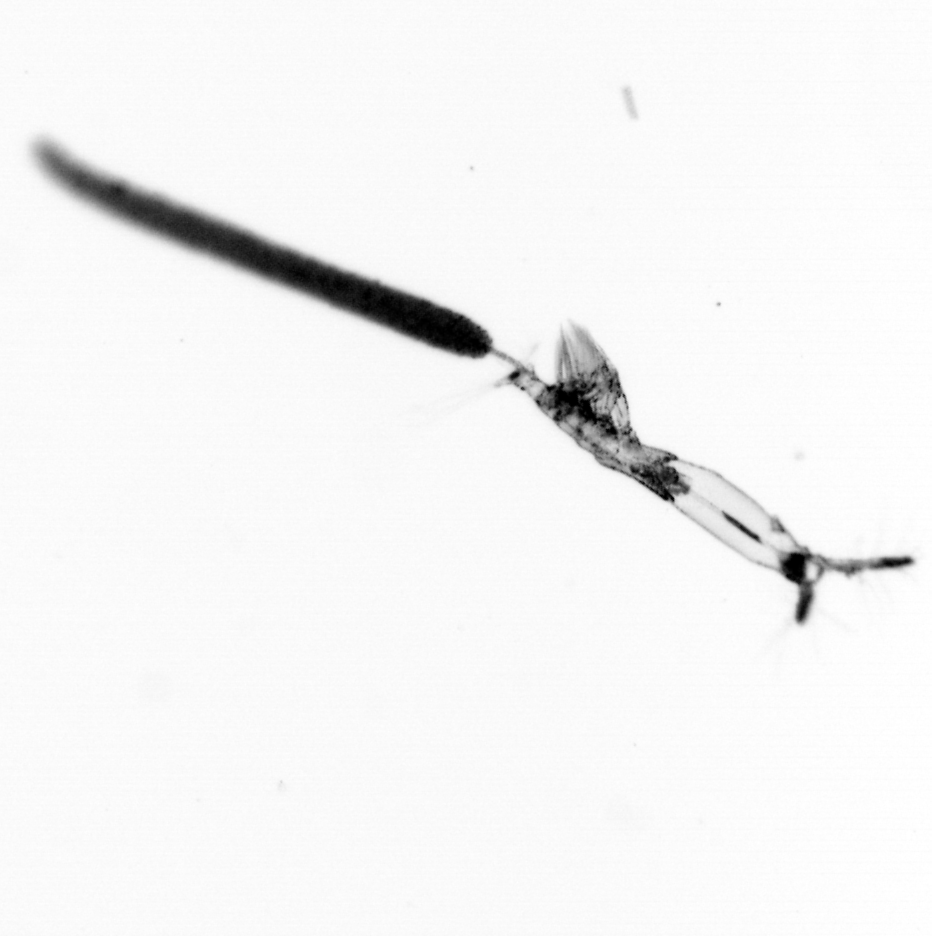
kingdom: Animalia
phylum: Arthropoda
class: Copepoda
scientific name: Copepoda
